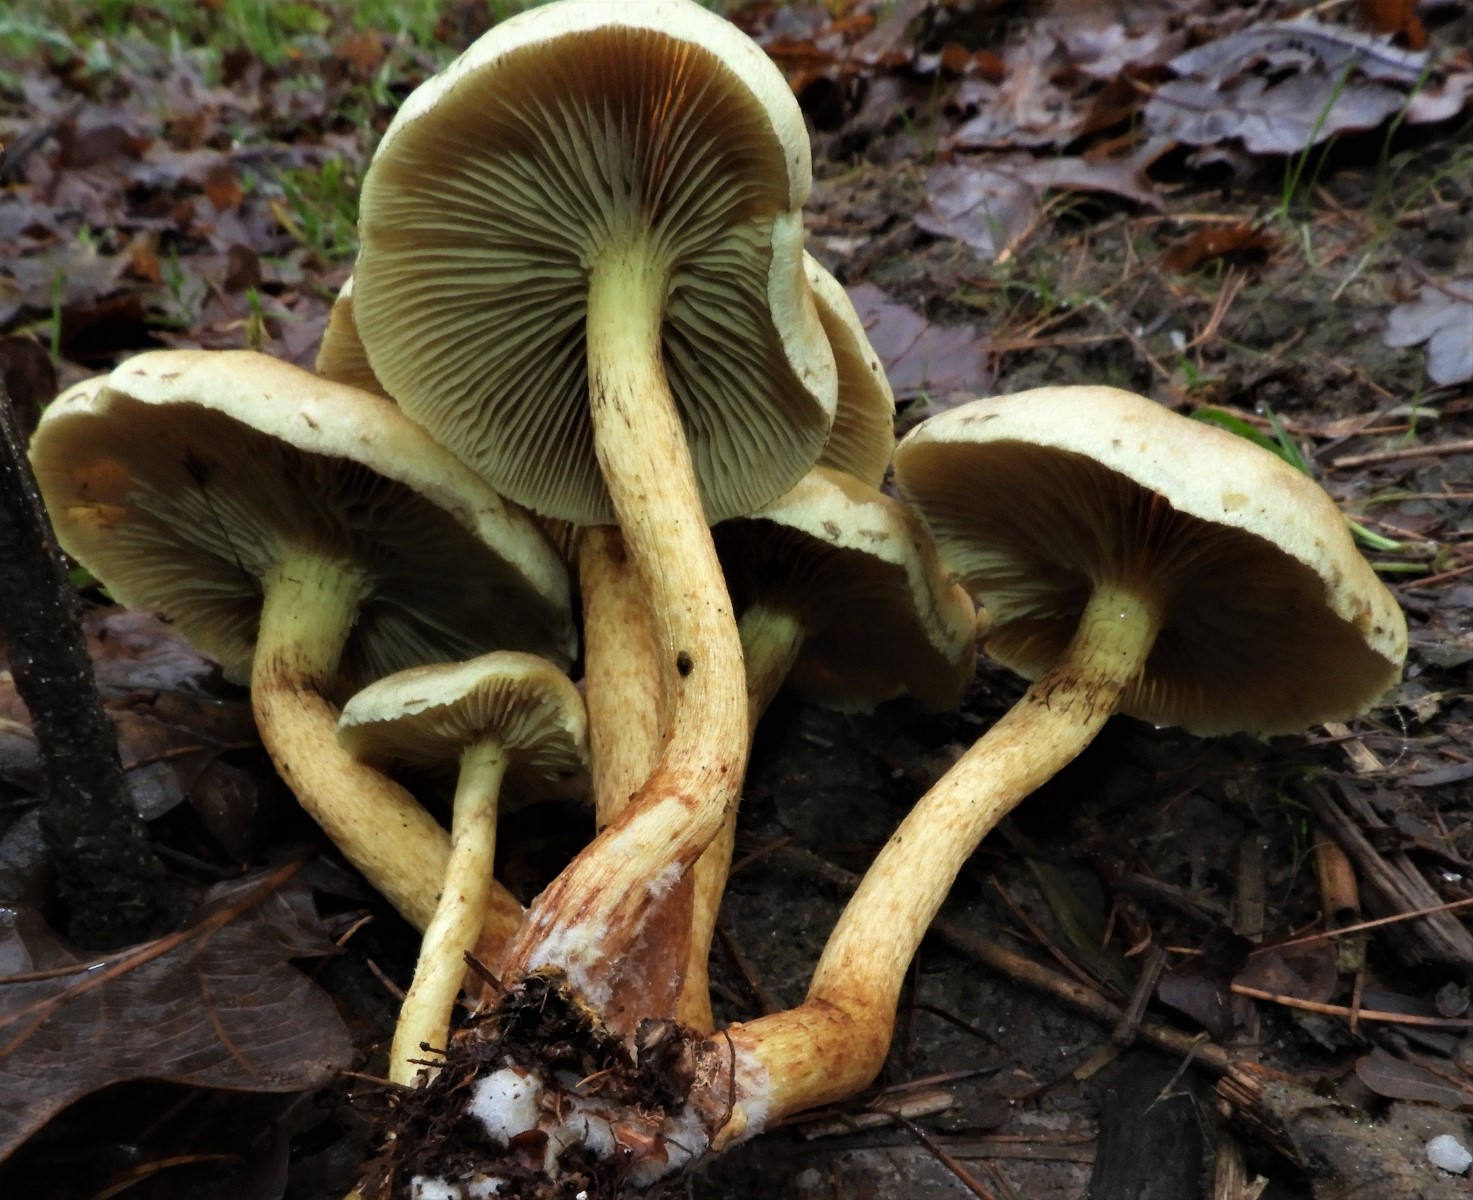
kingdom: Fungi
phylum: Basidiomycota
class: Agaricomycetes
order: Agaricales
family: Strophariaceae
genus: Hypholoma
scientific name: Hypholoma fasciculare
